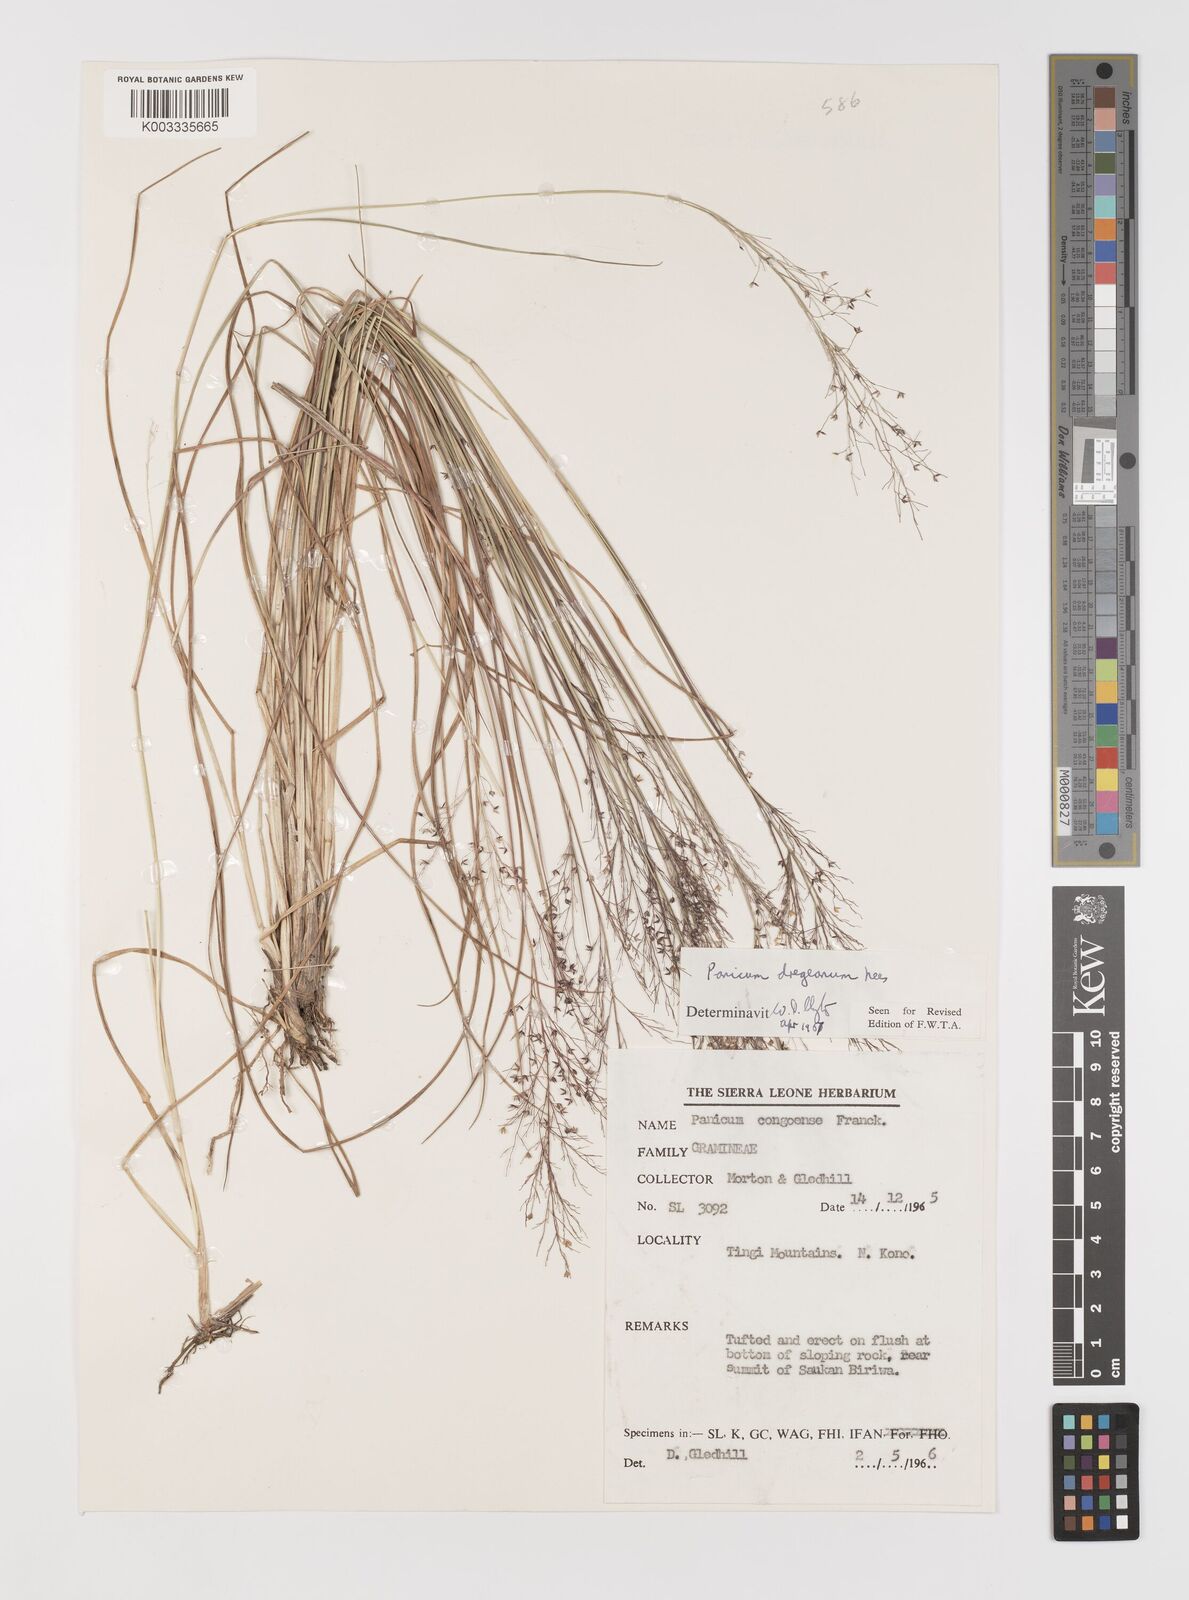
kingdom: Plantae
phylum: Tracheophyta
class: Liliopsida
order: Poales
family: Poaceae
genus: Panicum
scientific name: Panicum dregeanum
